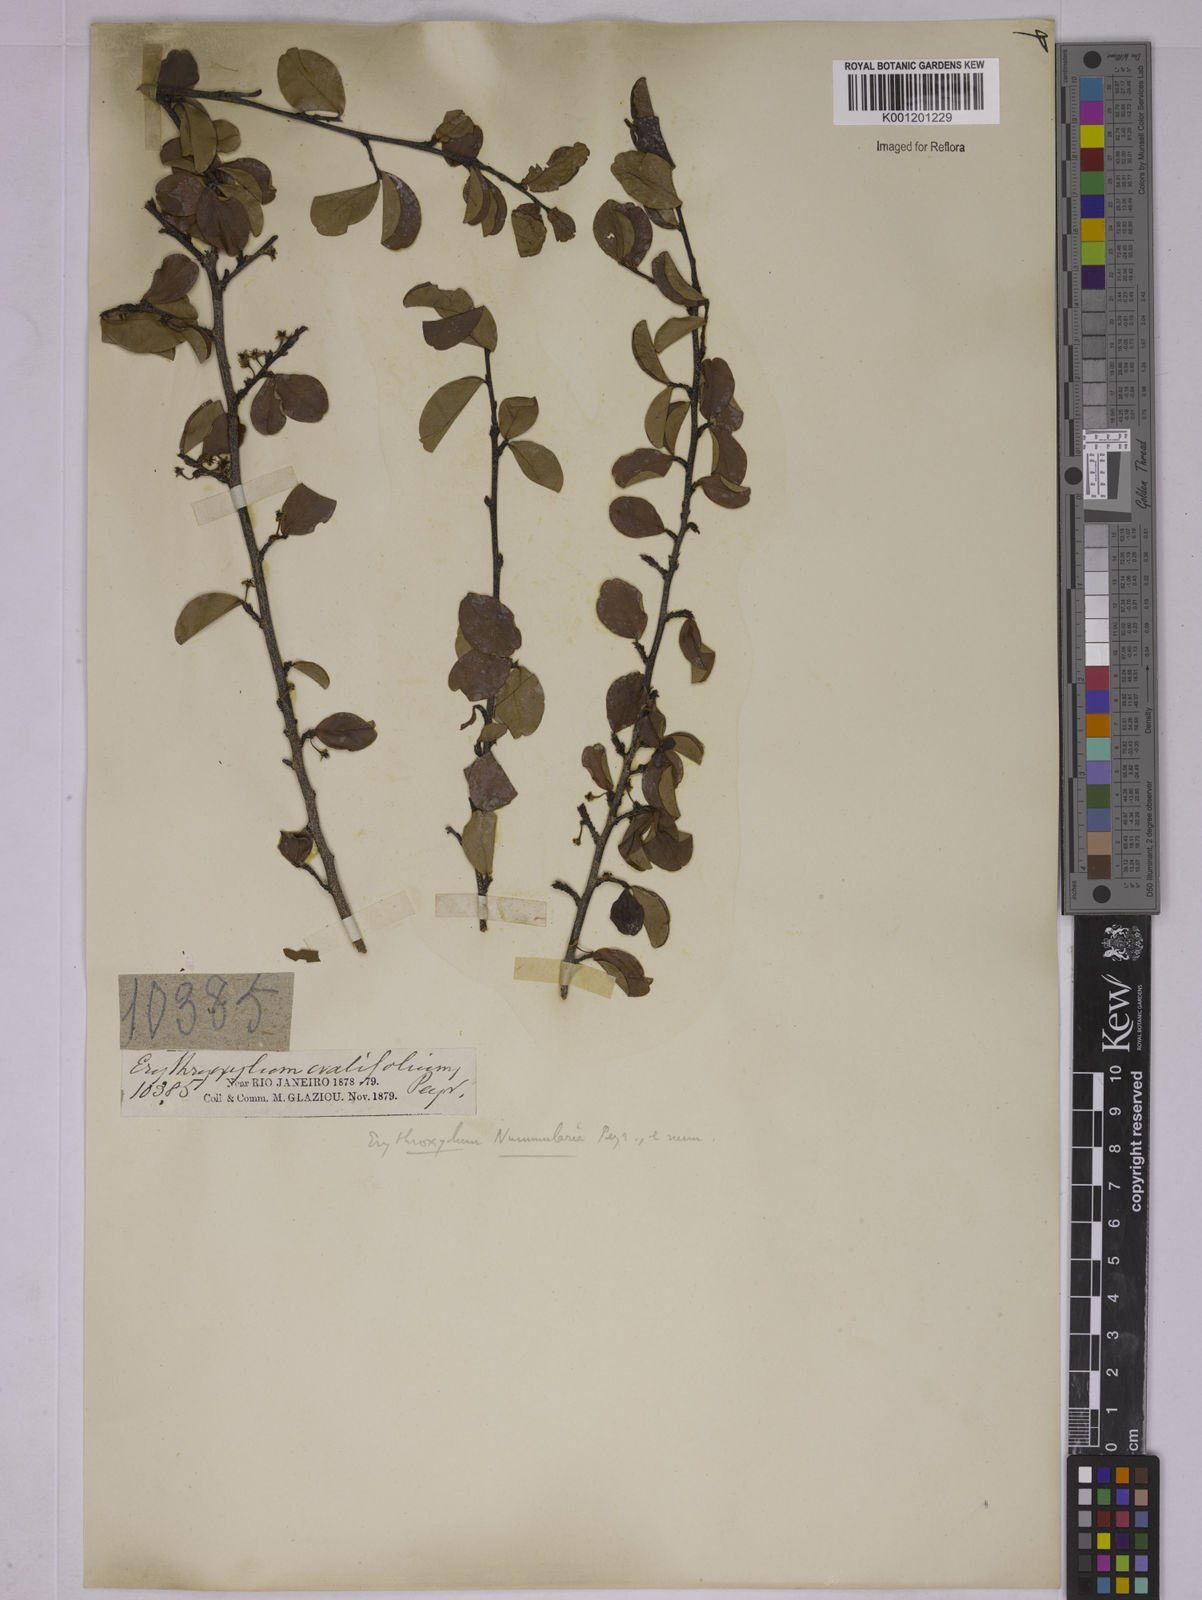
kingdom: Plantae
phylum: Tracheophyta
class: Magnoliopsida
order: Malpighiales
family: Erythroxylaceae
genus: Erythroxylum
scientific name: Erythroxylum nummularia
